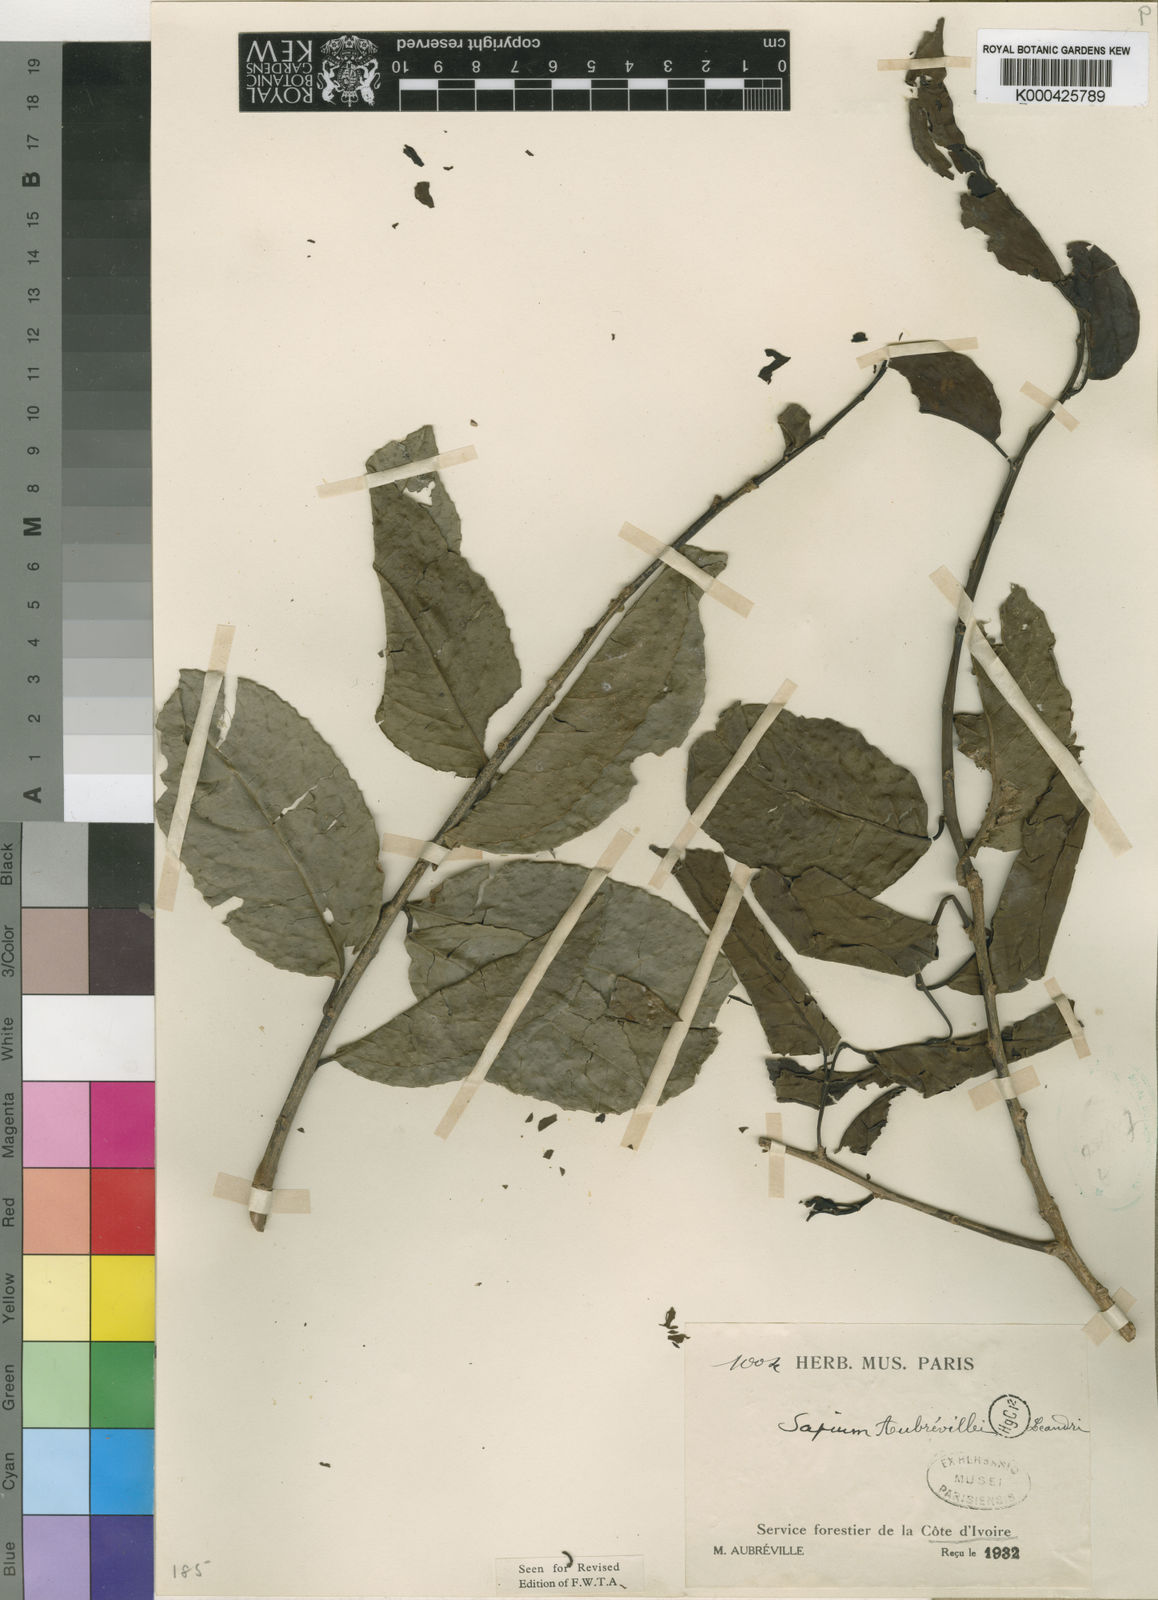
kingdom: Plantae
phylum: Tracheophyta
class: Magnoliopsida
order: Malpighiales
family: Euphorbiaceae
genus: Shirakiopsis
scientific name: Shirakiopsis aubrevillei
